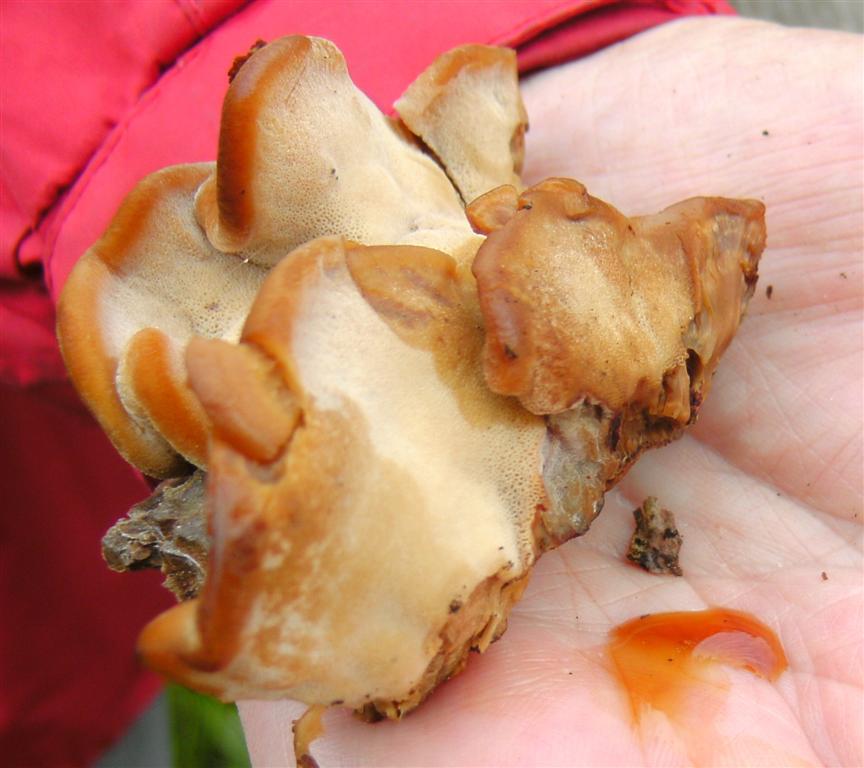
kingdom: Fungi
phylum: Basidiomycota
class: Agaricomycetes
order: Polyporales
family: Ischnodermataceae
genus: Ischnoderma
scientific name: Ischnoderma benzoinum
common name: gran-tjæreporesvamp
